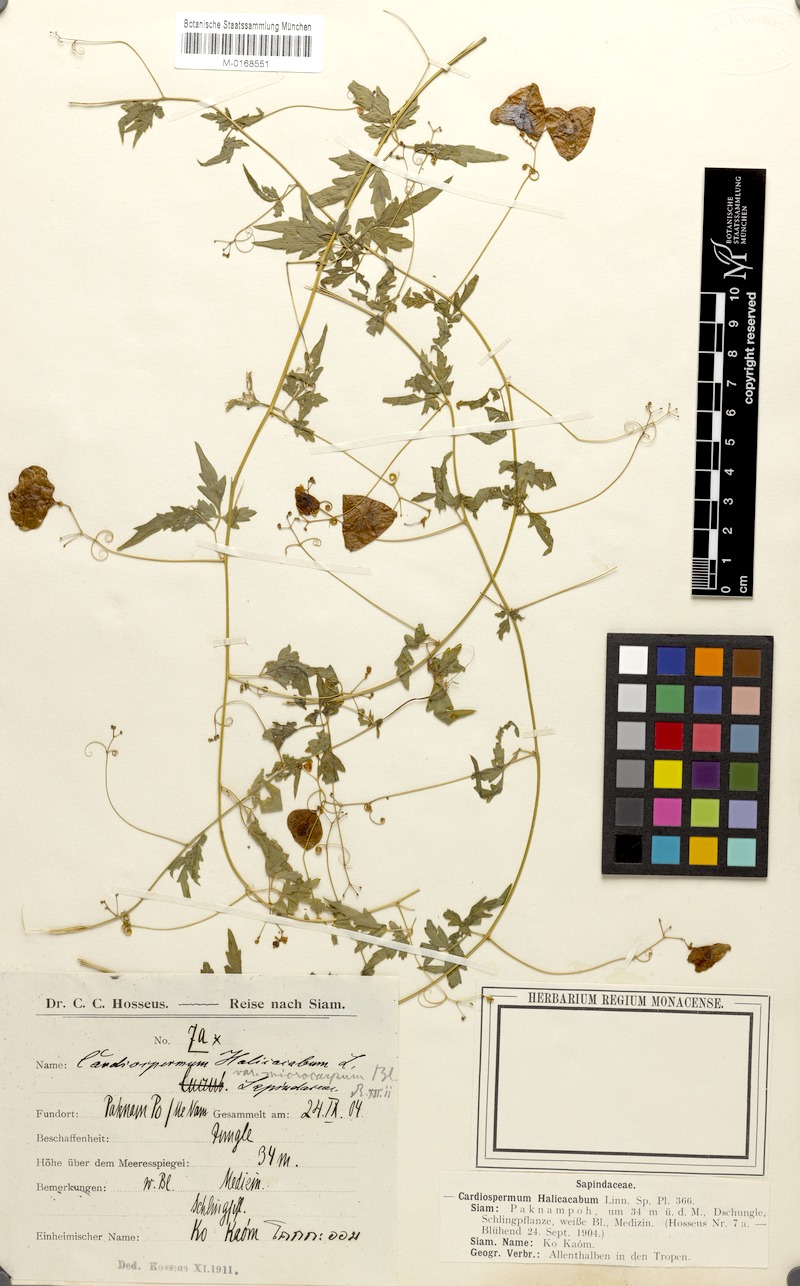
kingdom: Plantae
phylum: Tracheophyta
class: Magnoliopsida
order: Sapindales
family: Sapindaceae
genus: Cardiospermum
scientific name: Cardiospermum halicacabum
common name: Balloon vine
